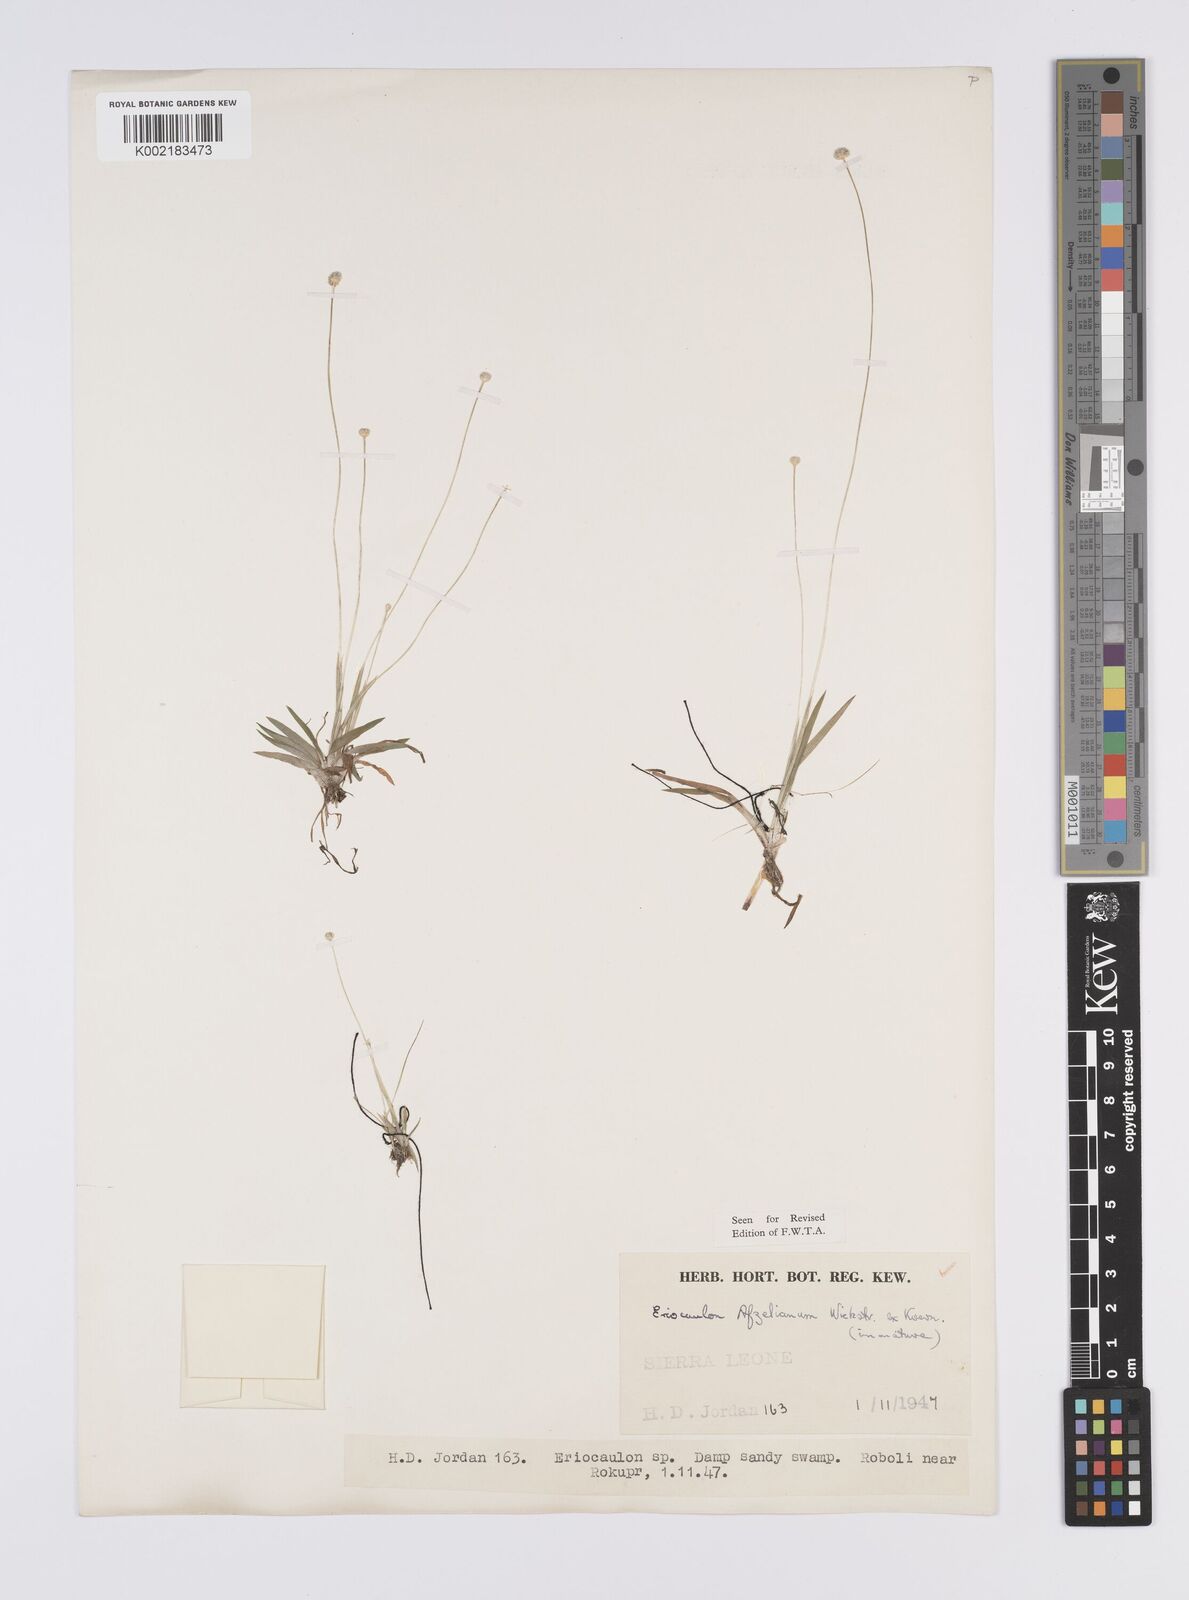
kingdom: Plantae
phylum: Tracheophyta
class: Liliopsida
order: Poales
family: Eriocaulaceae
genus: Eriocaulon
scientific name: Eriocaulon afzelianum
